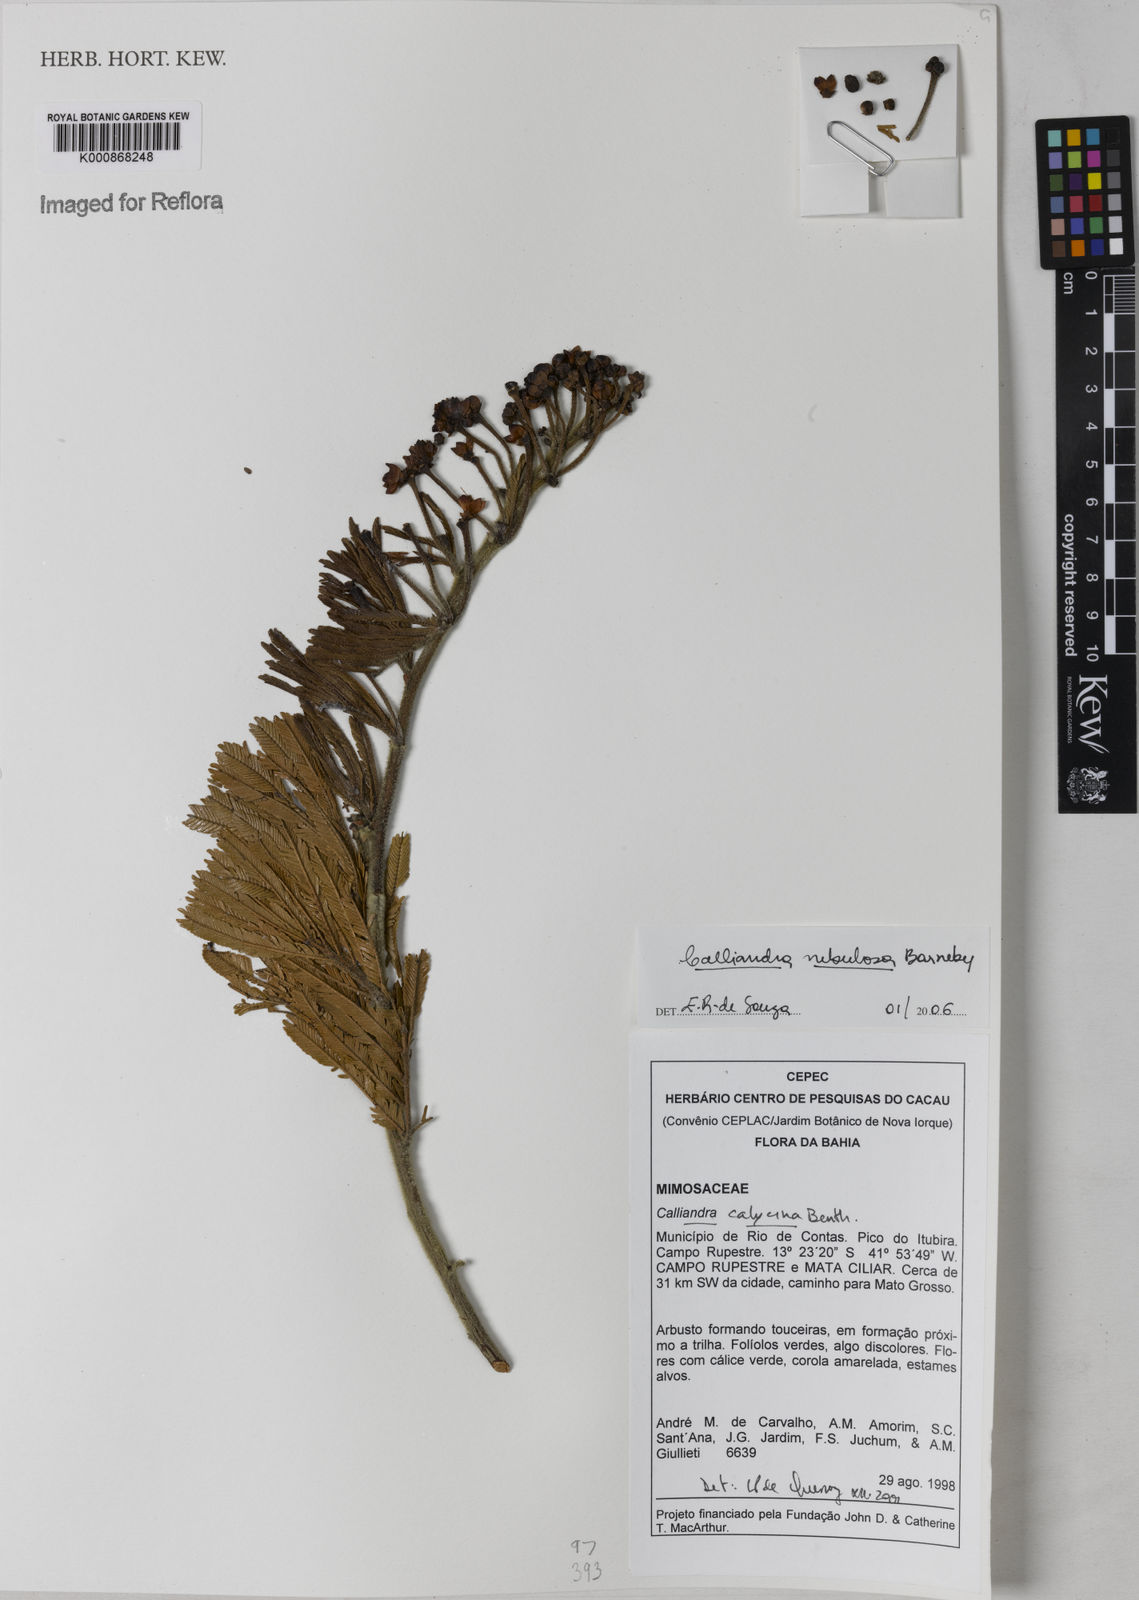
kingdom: Plantae
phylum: Tracheophyta
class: Magnoliopsida
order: Fabales
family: Fabaceae
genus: Calliandra
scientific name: Calliandra nebulosa
